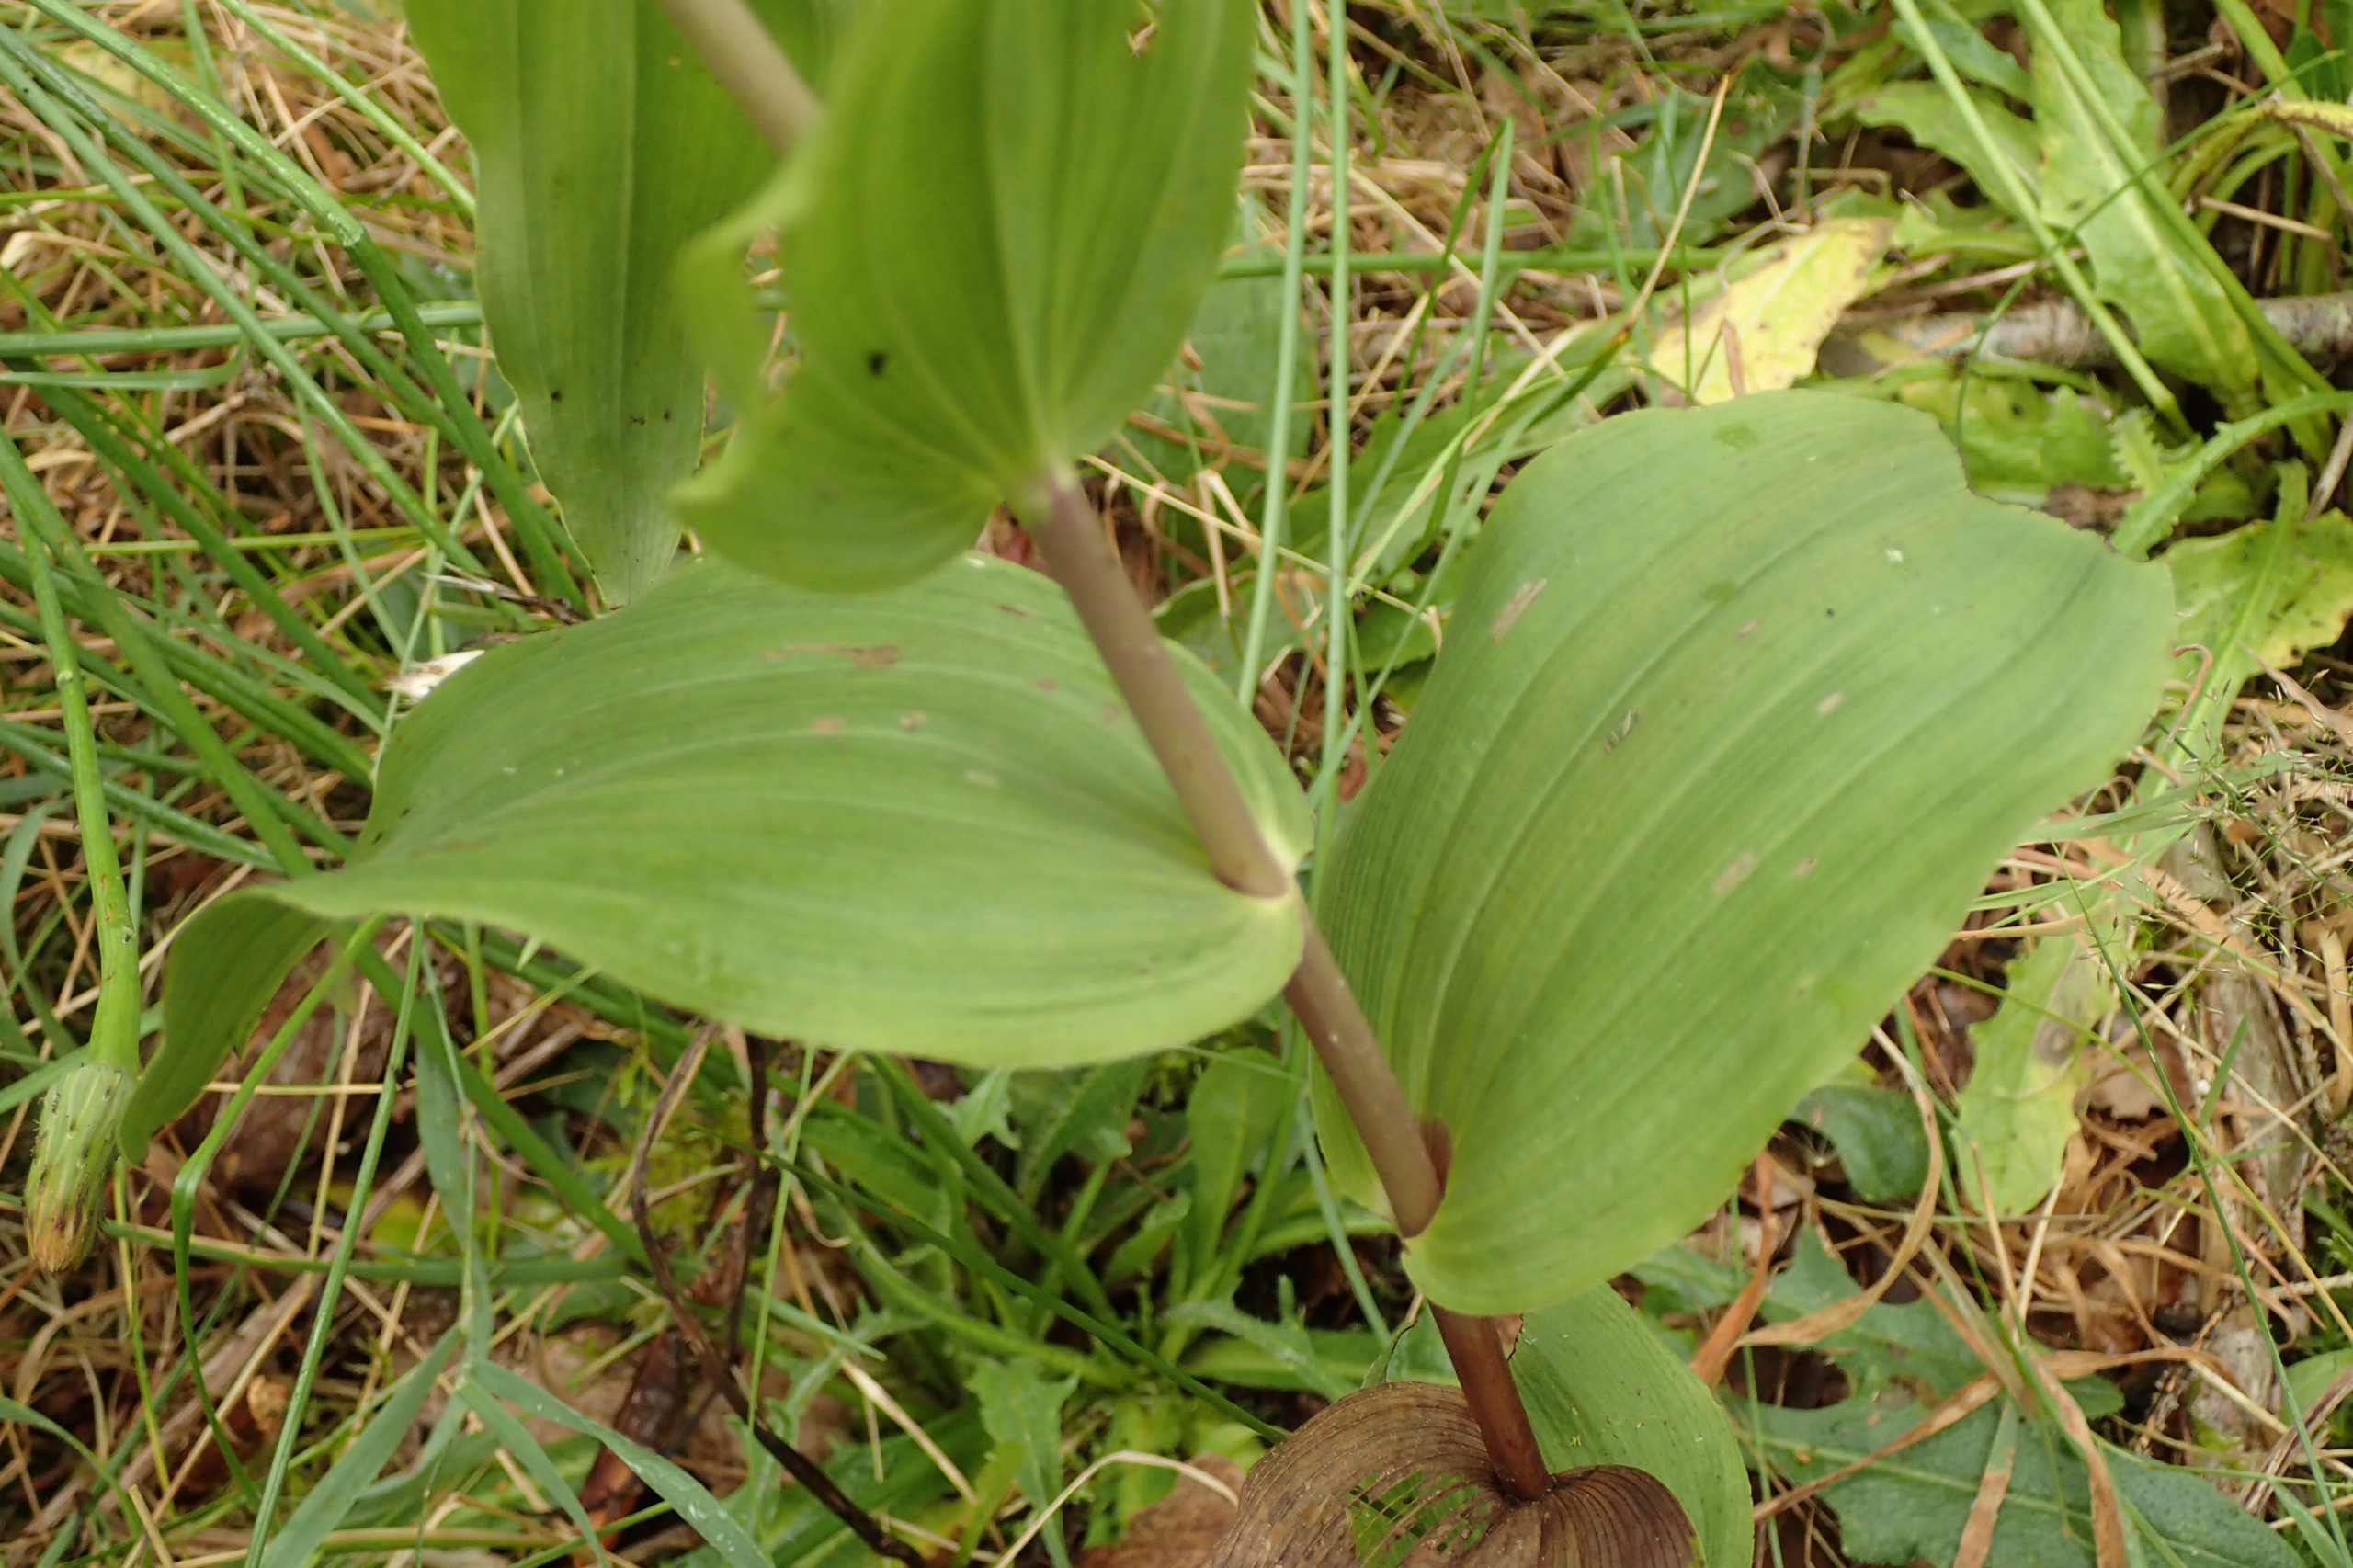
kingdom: Plantae
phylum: Tracheophyta
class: Liliopsida
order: Asparagales
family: Orchidaceae
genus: Epipactis
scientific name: Epipactis helleborine
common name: Skov-hullæbe
